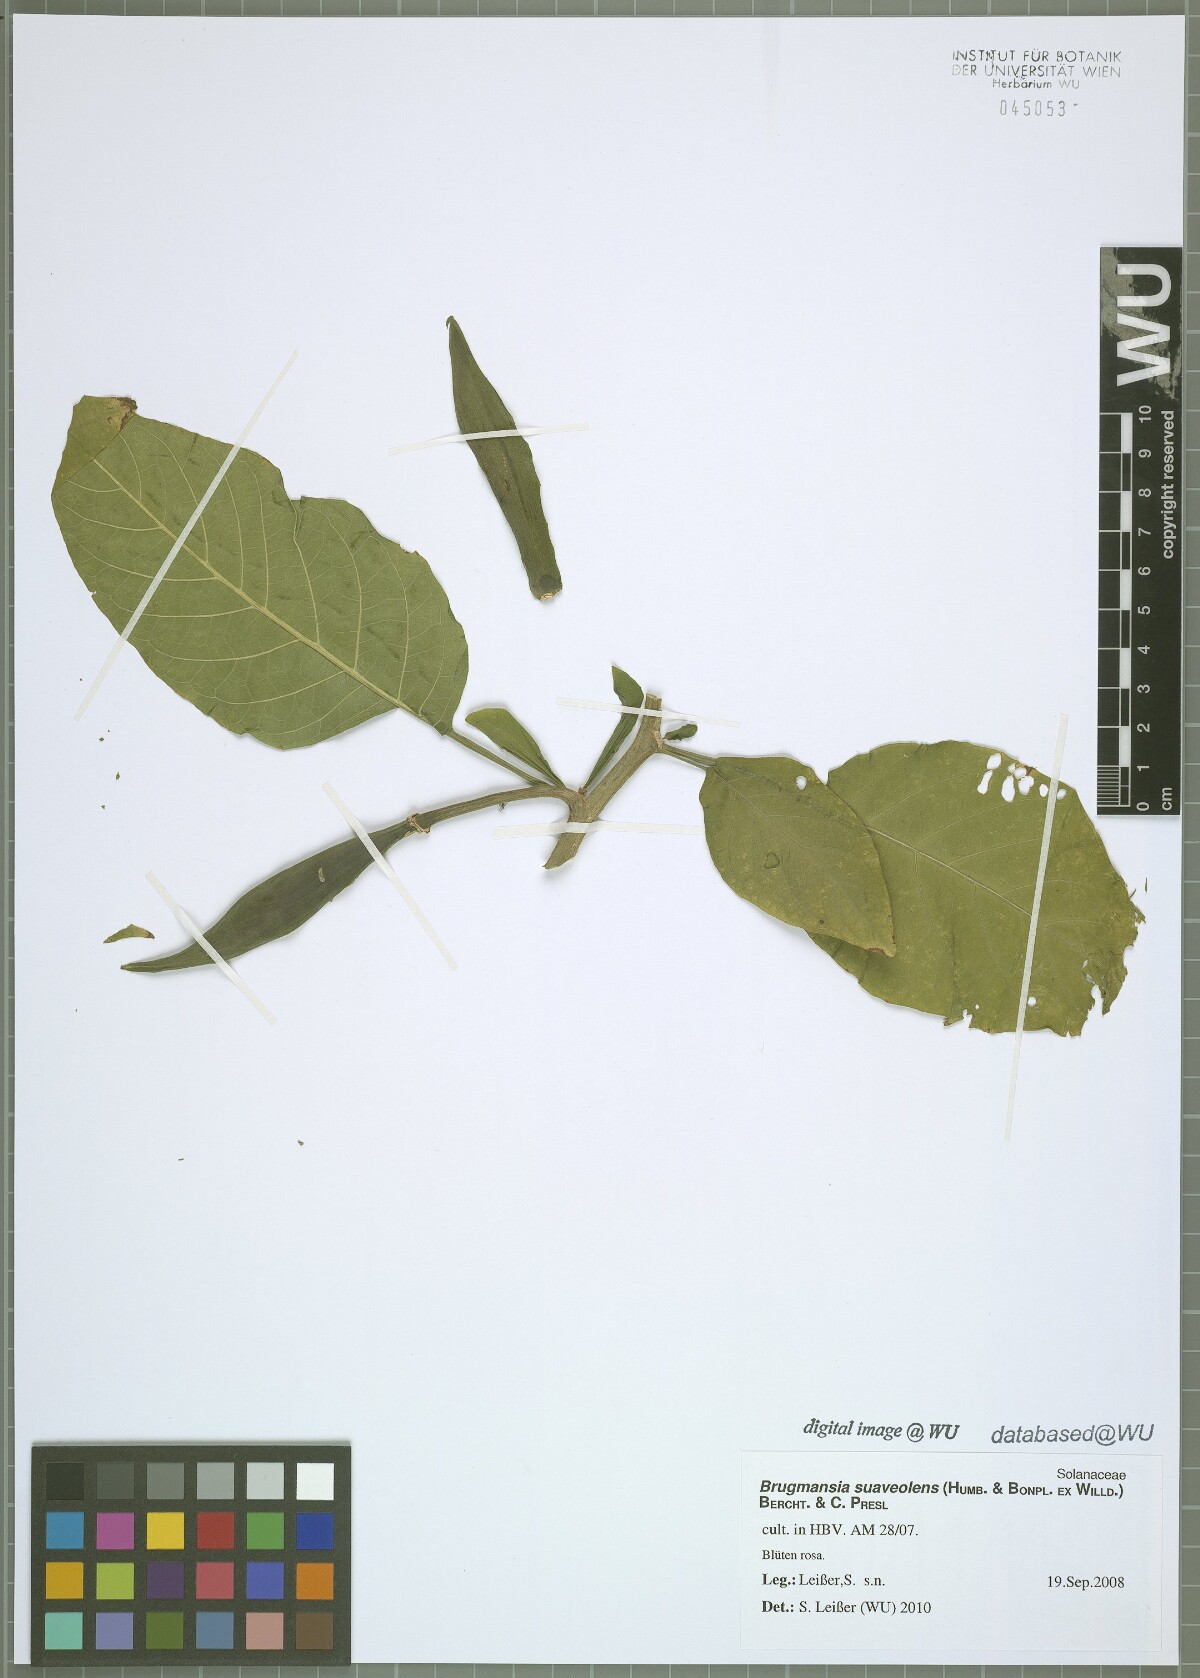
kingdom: Plantae
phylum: Tracheophyta
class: Magnoliopsida
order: Solanales
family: Solanaceae
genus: Brugmansia
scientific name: Brugmansia suaveolens
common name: Angel's tears
